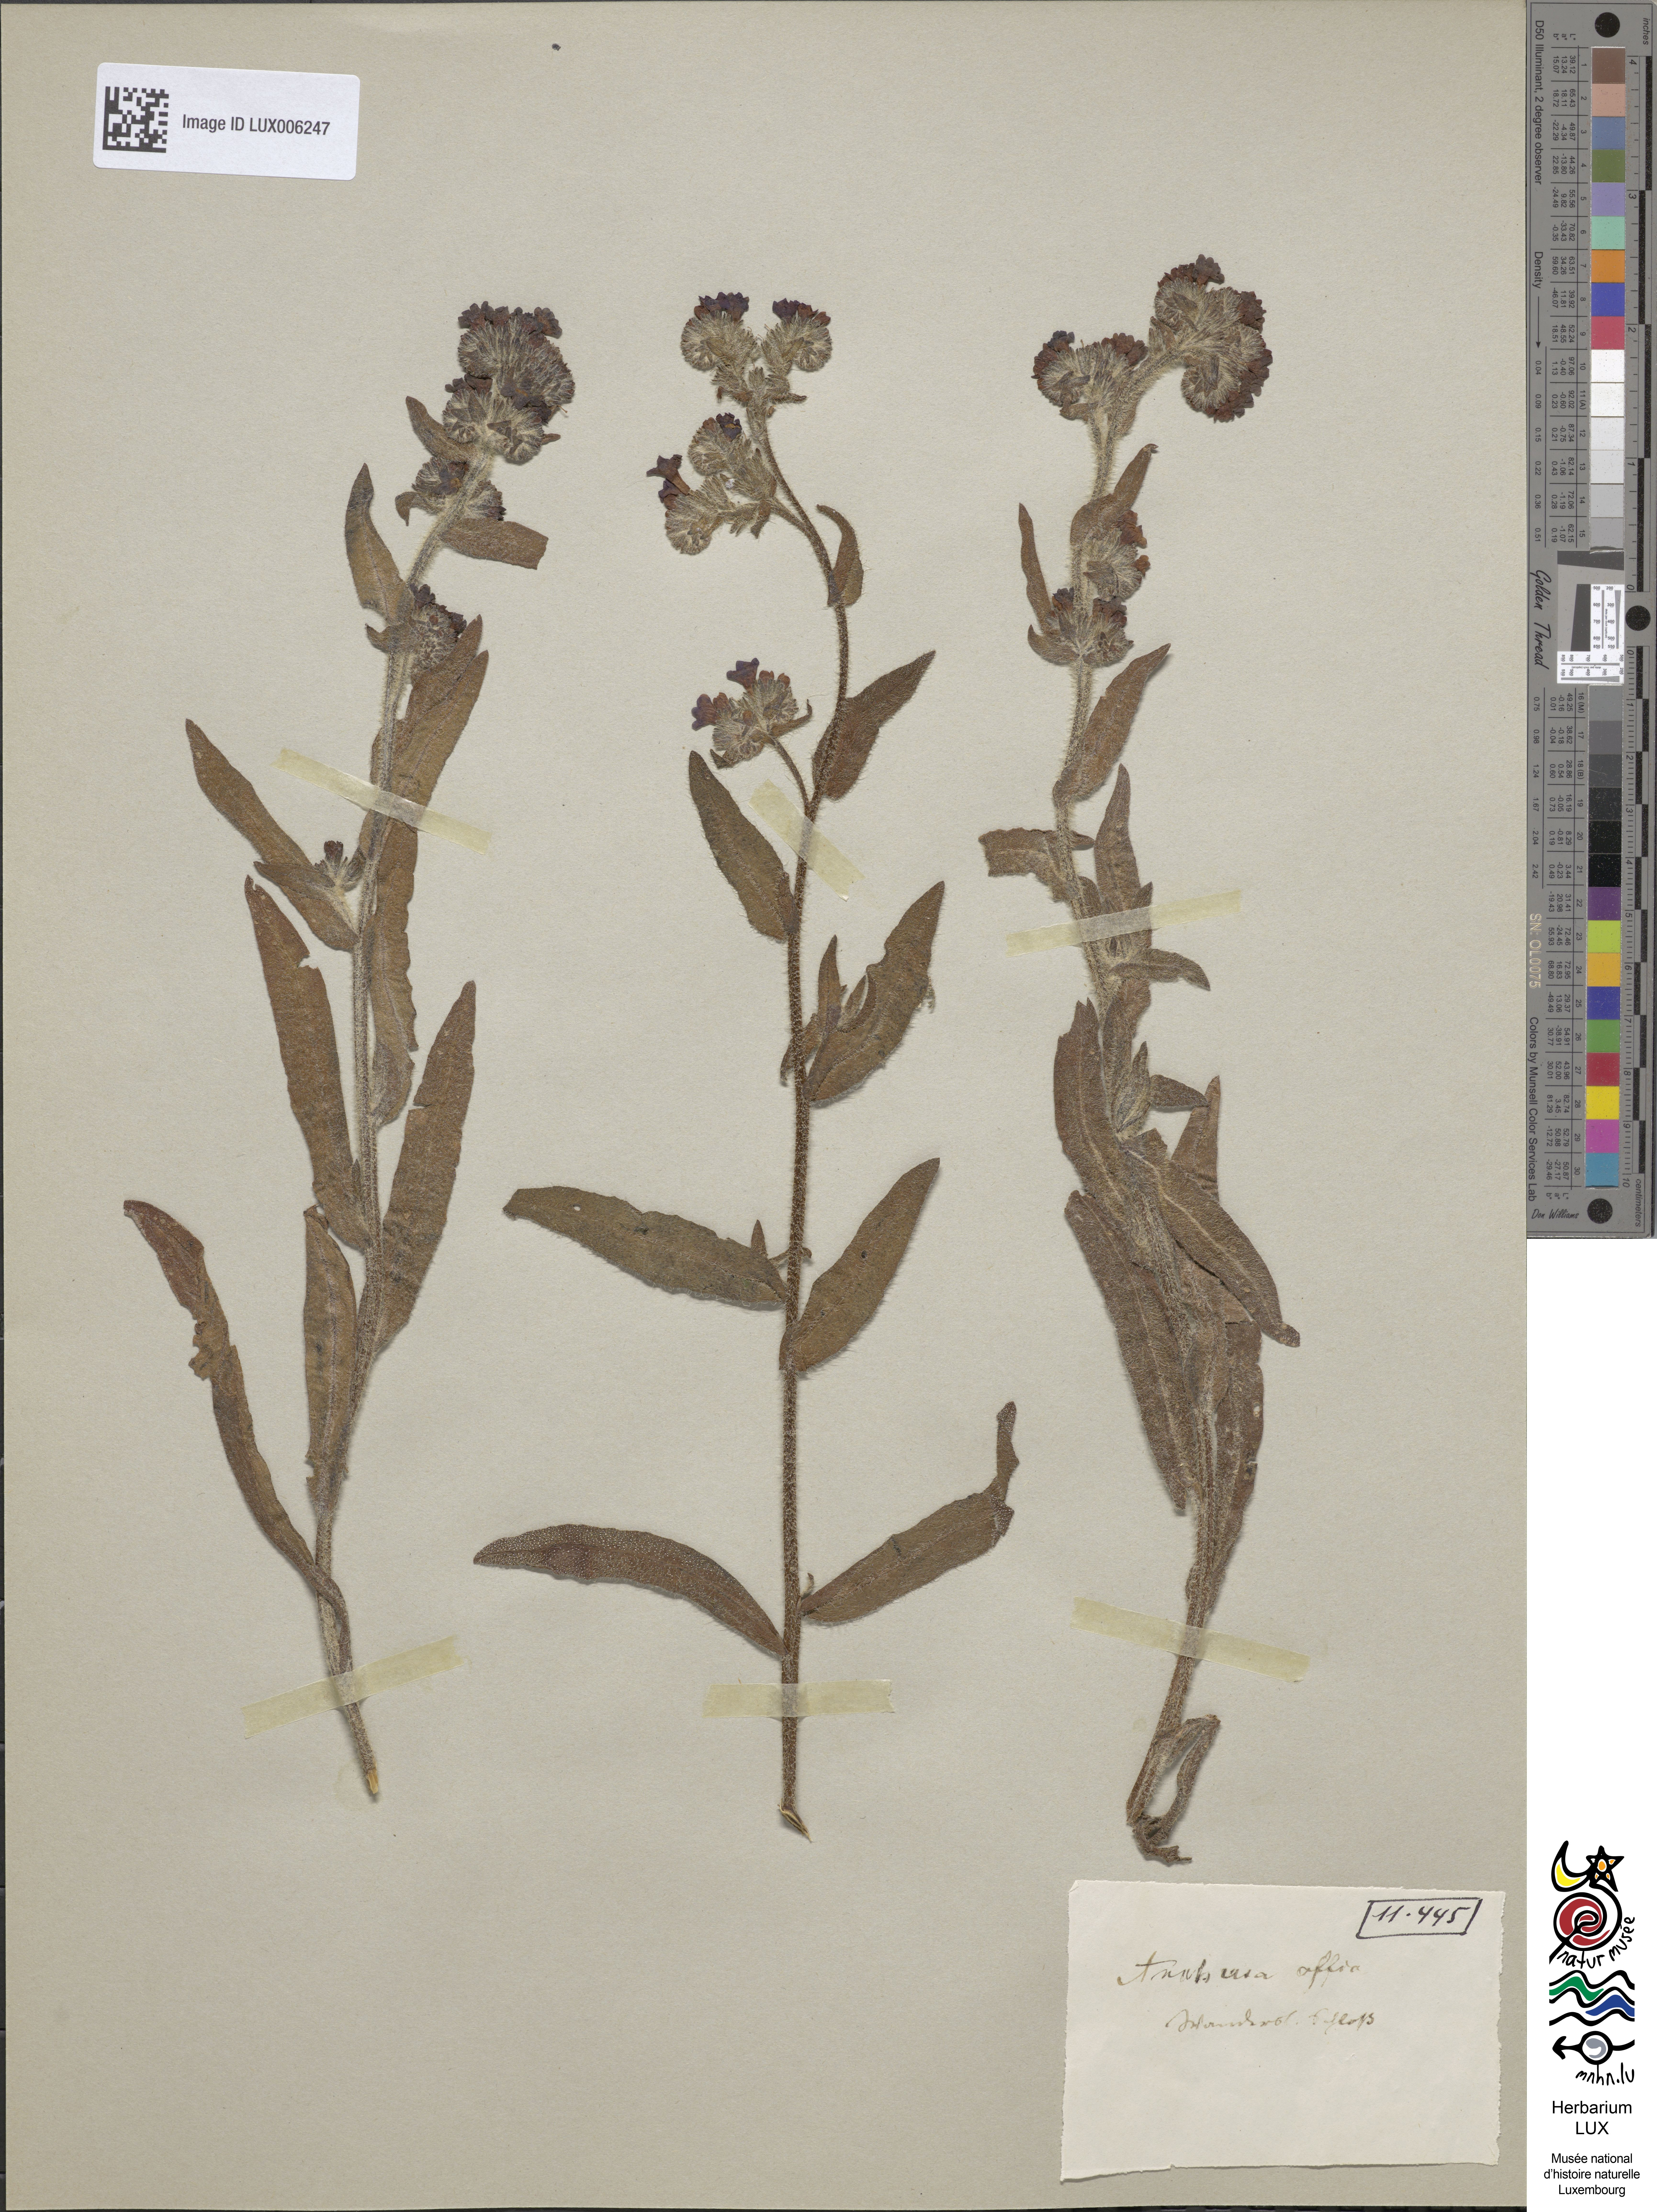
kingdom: Plantae
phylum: Tracheophyta
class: Magnoliopsida
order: Boraginales
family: Boraginaceae
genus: Anchusa
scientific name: Anchusa officinalis
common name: Alkanet
